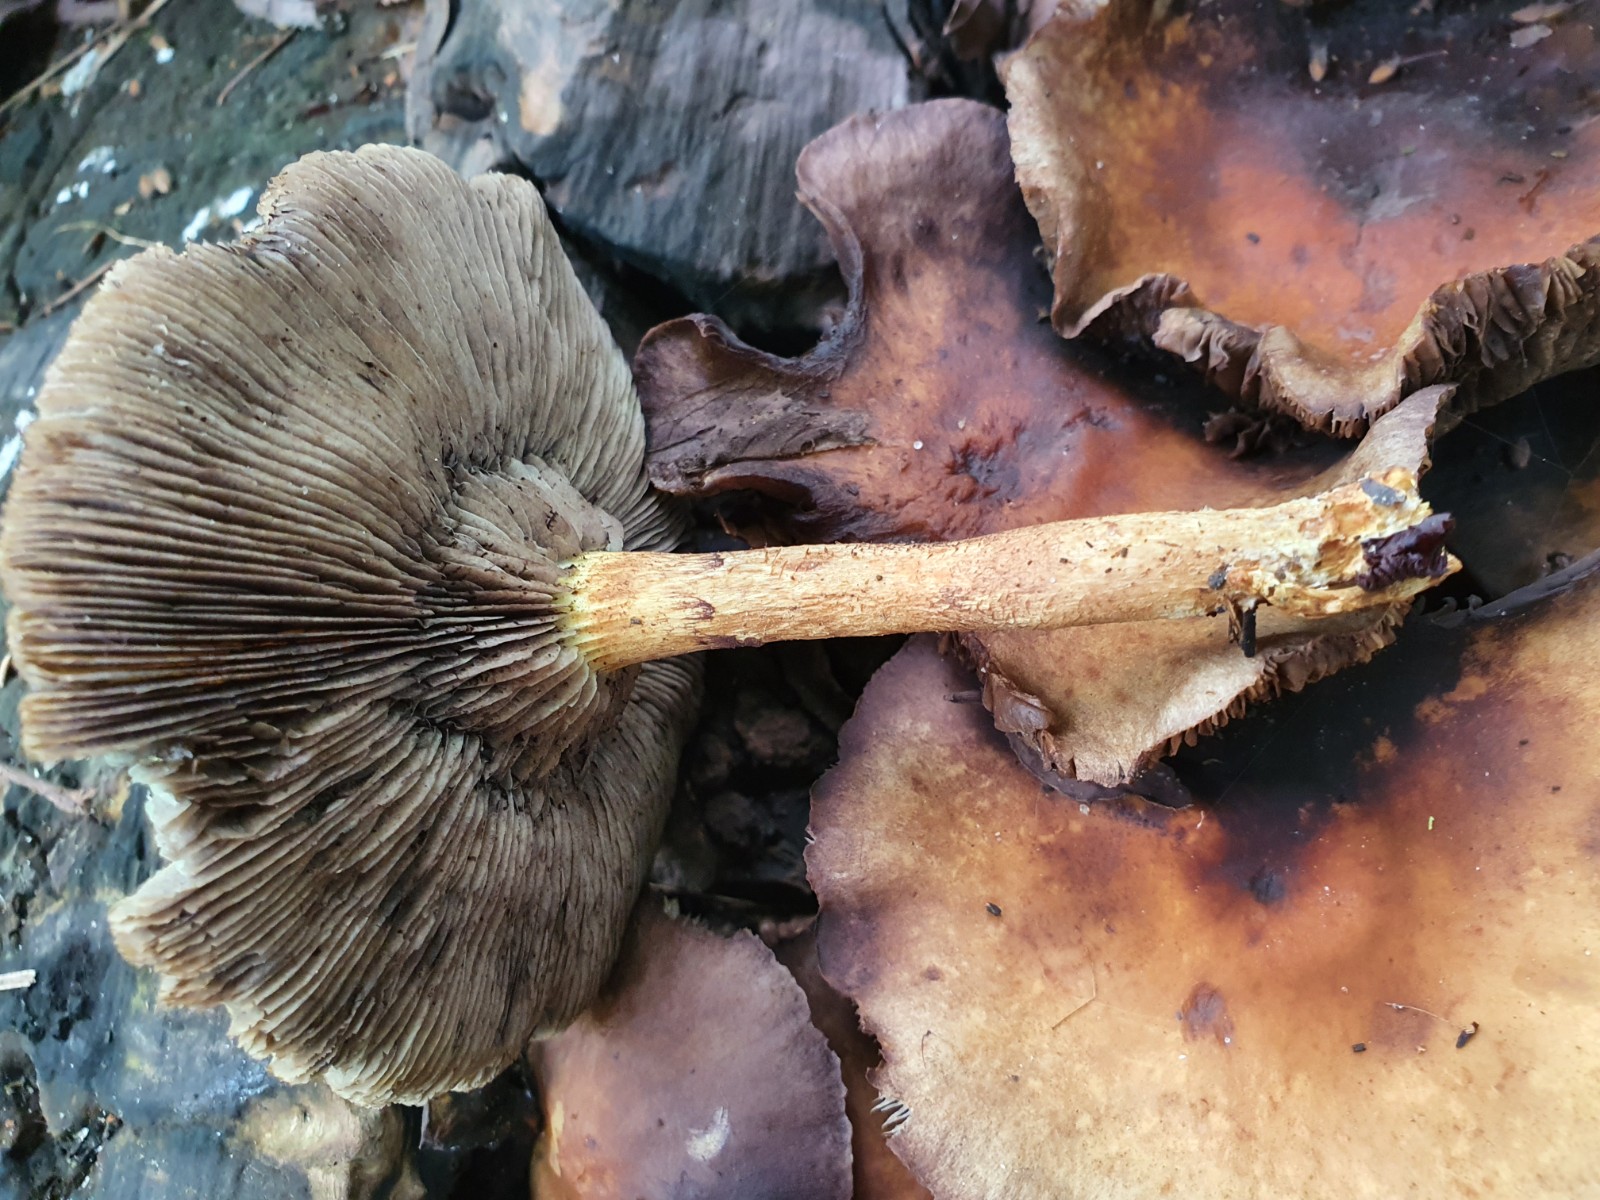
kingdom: Fungi
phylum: Basidiomycota
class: Agaricomycetes
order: Agaricales
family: Strophariaceae
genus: Hypholoma
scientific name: Hypholoma fasciculare
